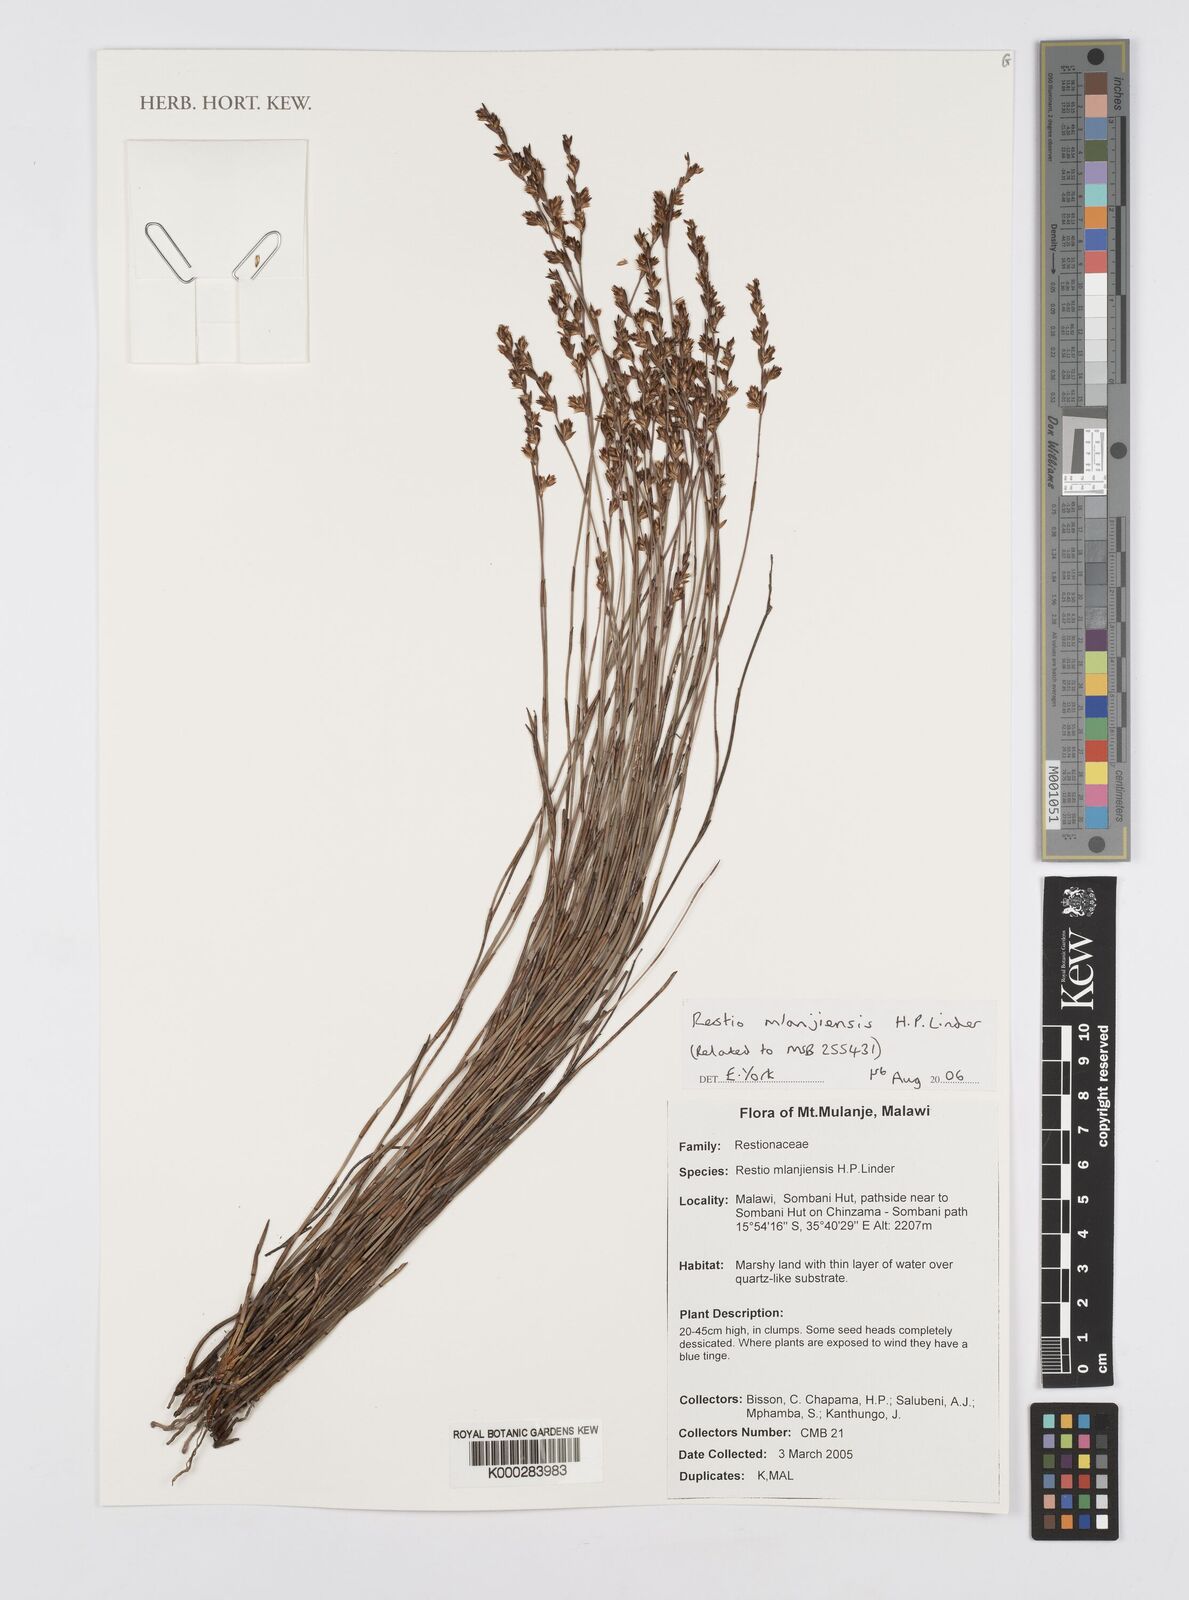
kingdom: Plantae
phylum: Tracheophyta
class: Liliopsida
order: Poales
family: Restionaceae
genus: Platycaulos
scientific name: Platycaulos mlanjiensis
